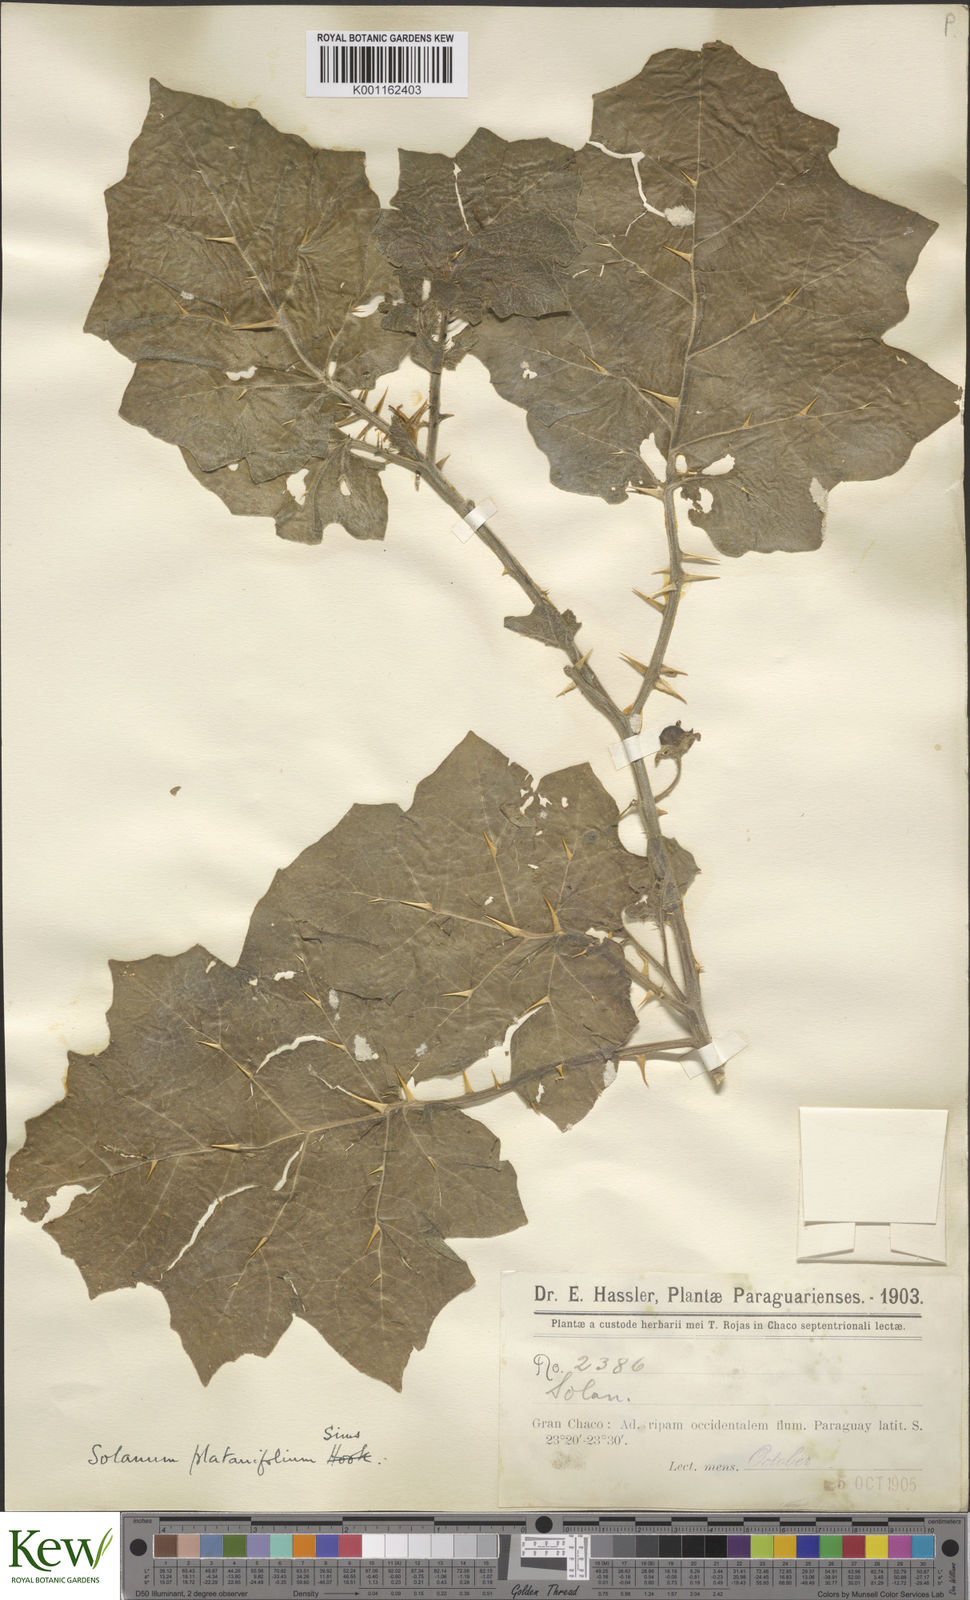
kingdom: Plantae
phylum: Tracheophyta
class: Magnoliopsida
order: Solanales
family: Solanaceae
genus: Solanum
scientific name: Solanum viarum
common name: Tropical soda apple
